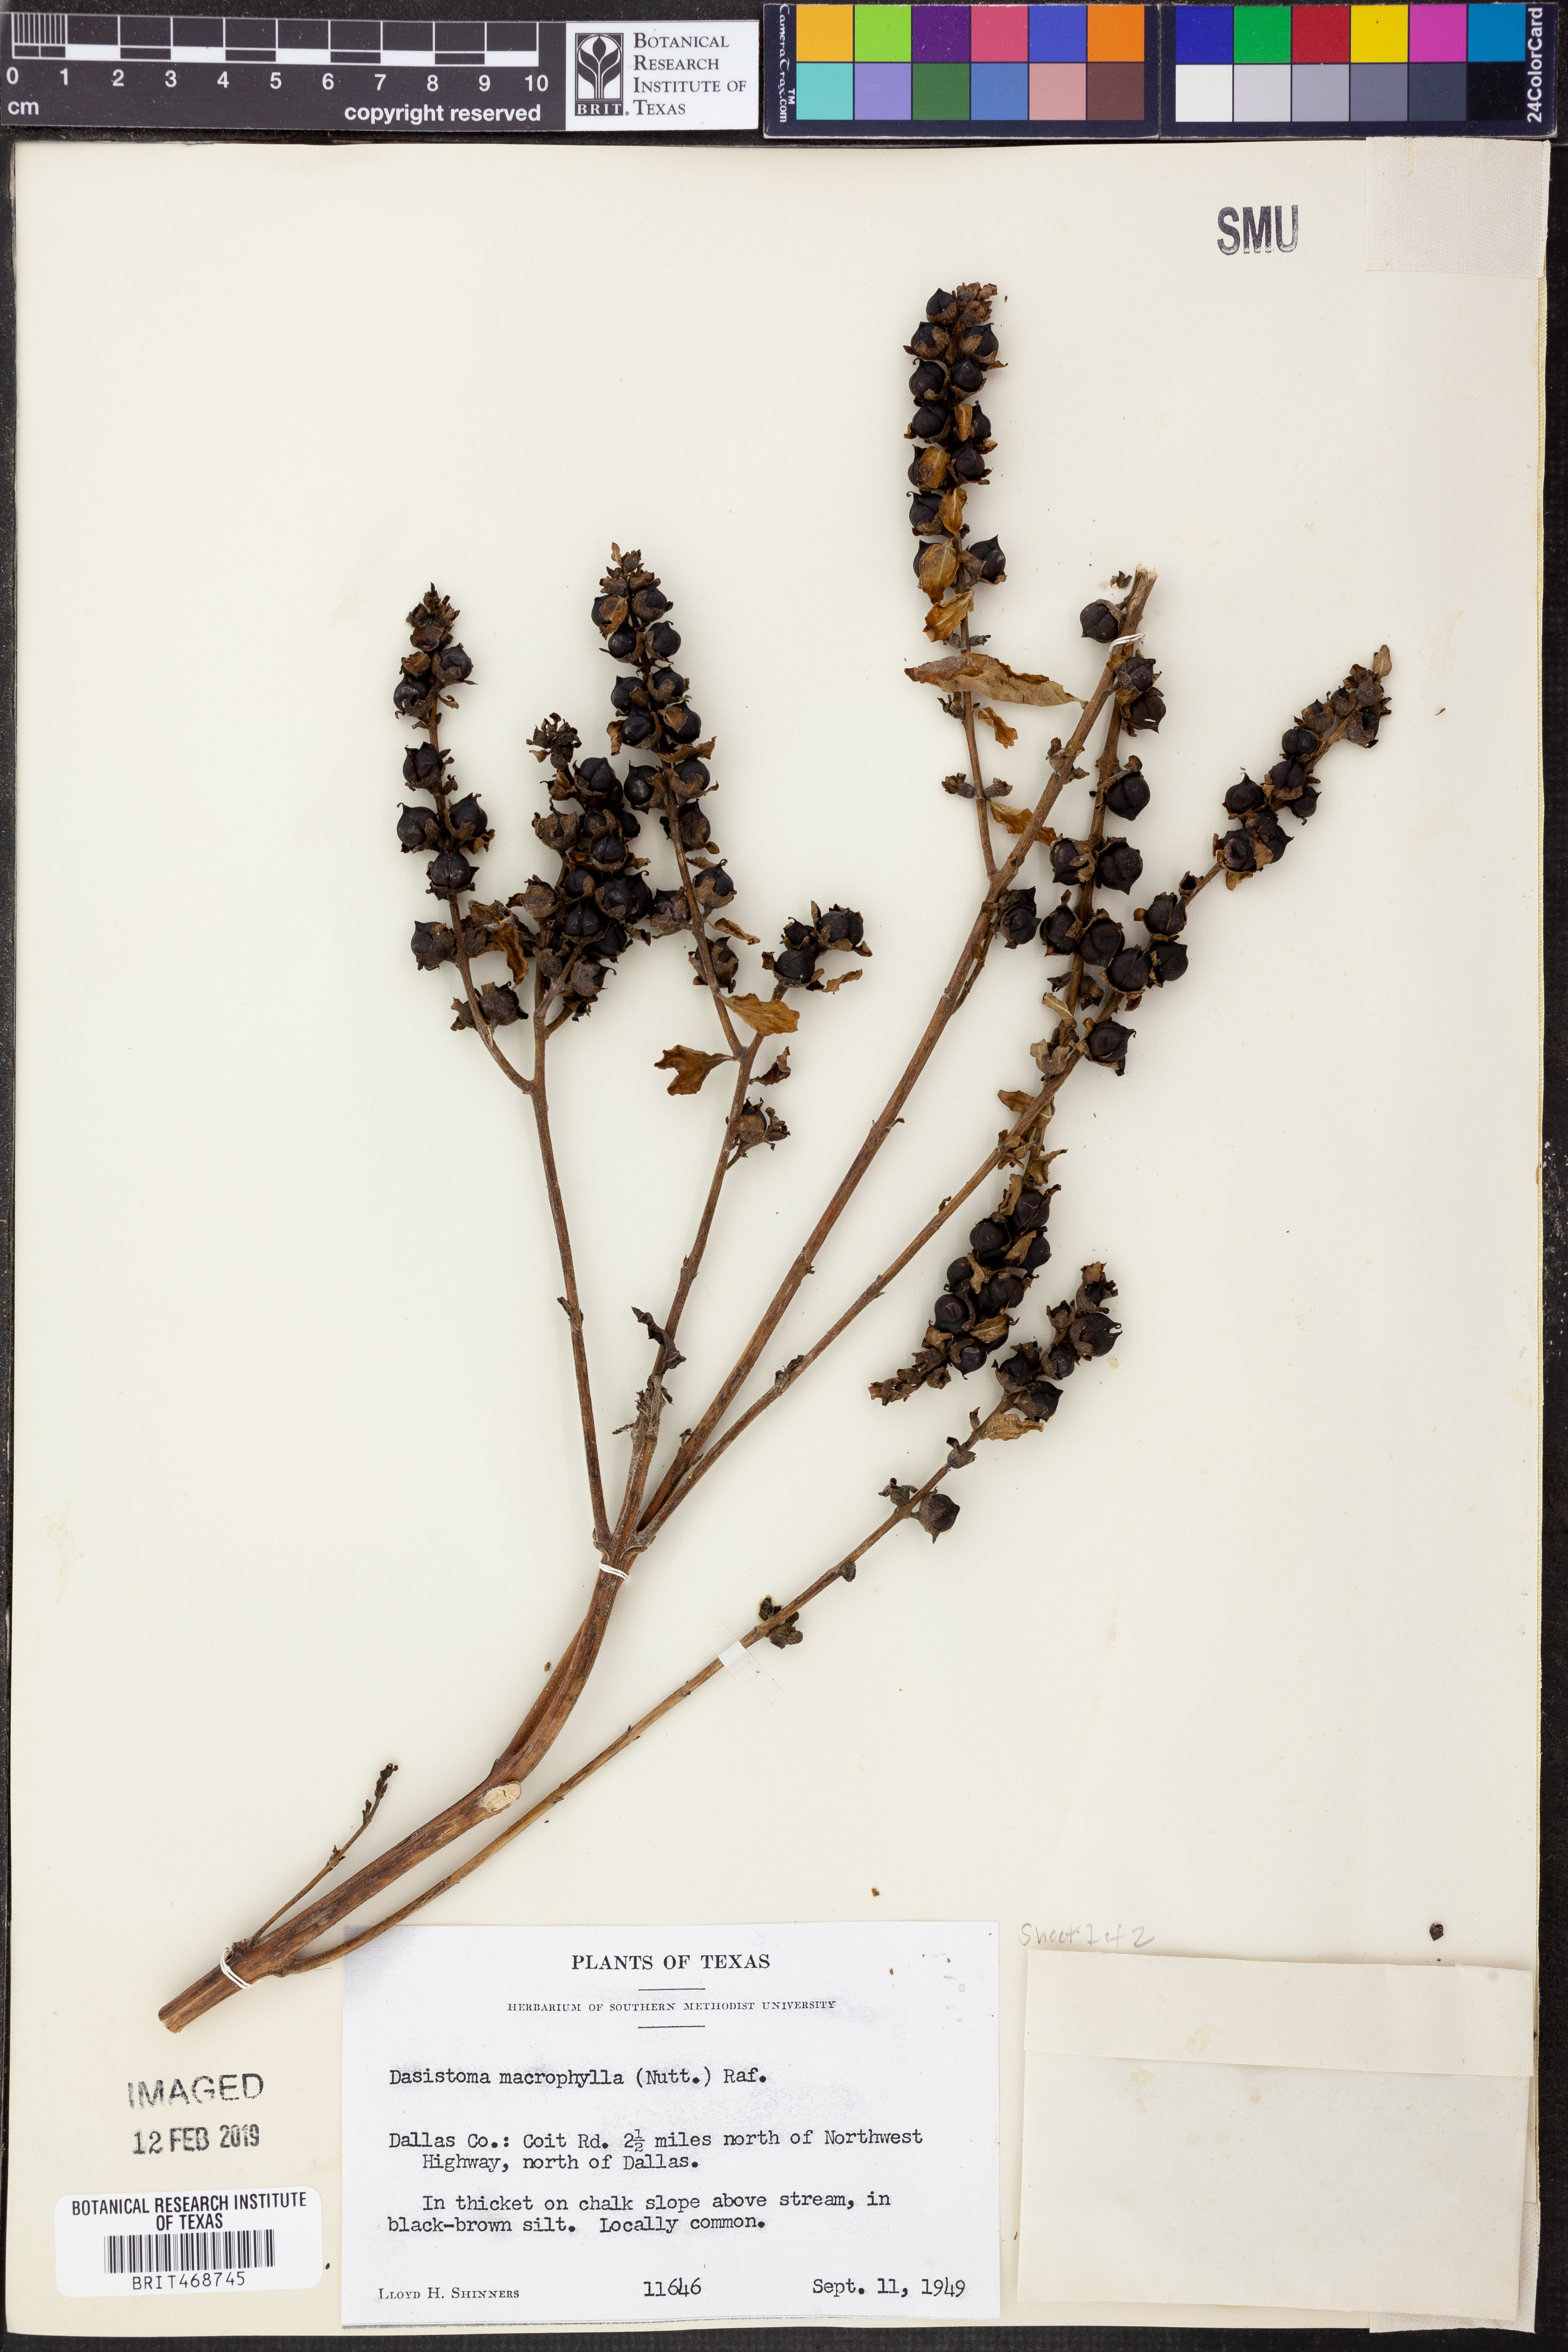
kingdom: Plantae
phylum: Tracheophyta
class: Magnoliopsida
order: Lamiales
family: Orobanchaceae
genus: Dasistoma
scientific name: Dasistoma macrophyllum
